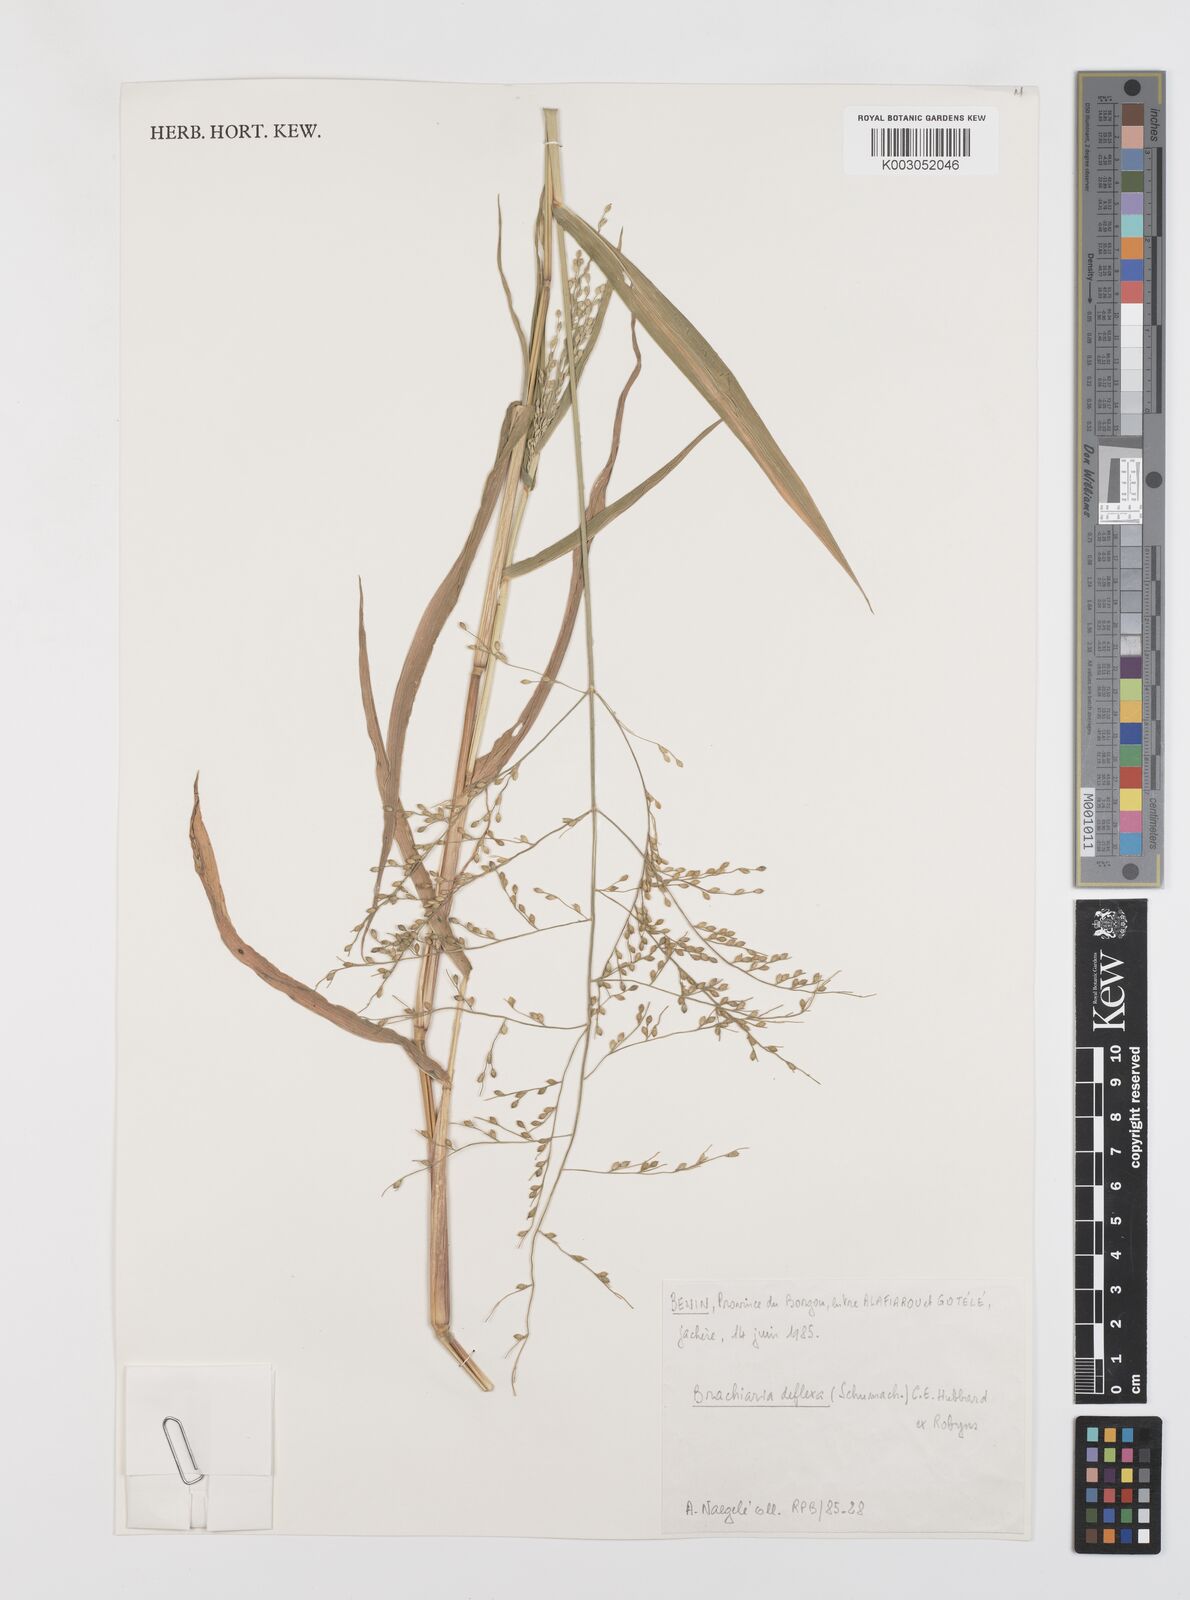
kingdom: Plantae
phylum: Tracheophyta
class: Liliopsida
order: Poales
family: Poaceae
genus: Urochloa
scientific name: Urochloa deflexa
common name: Guinea millet
